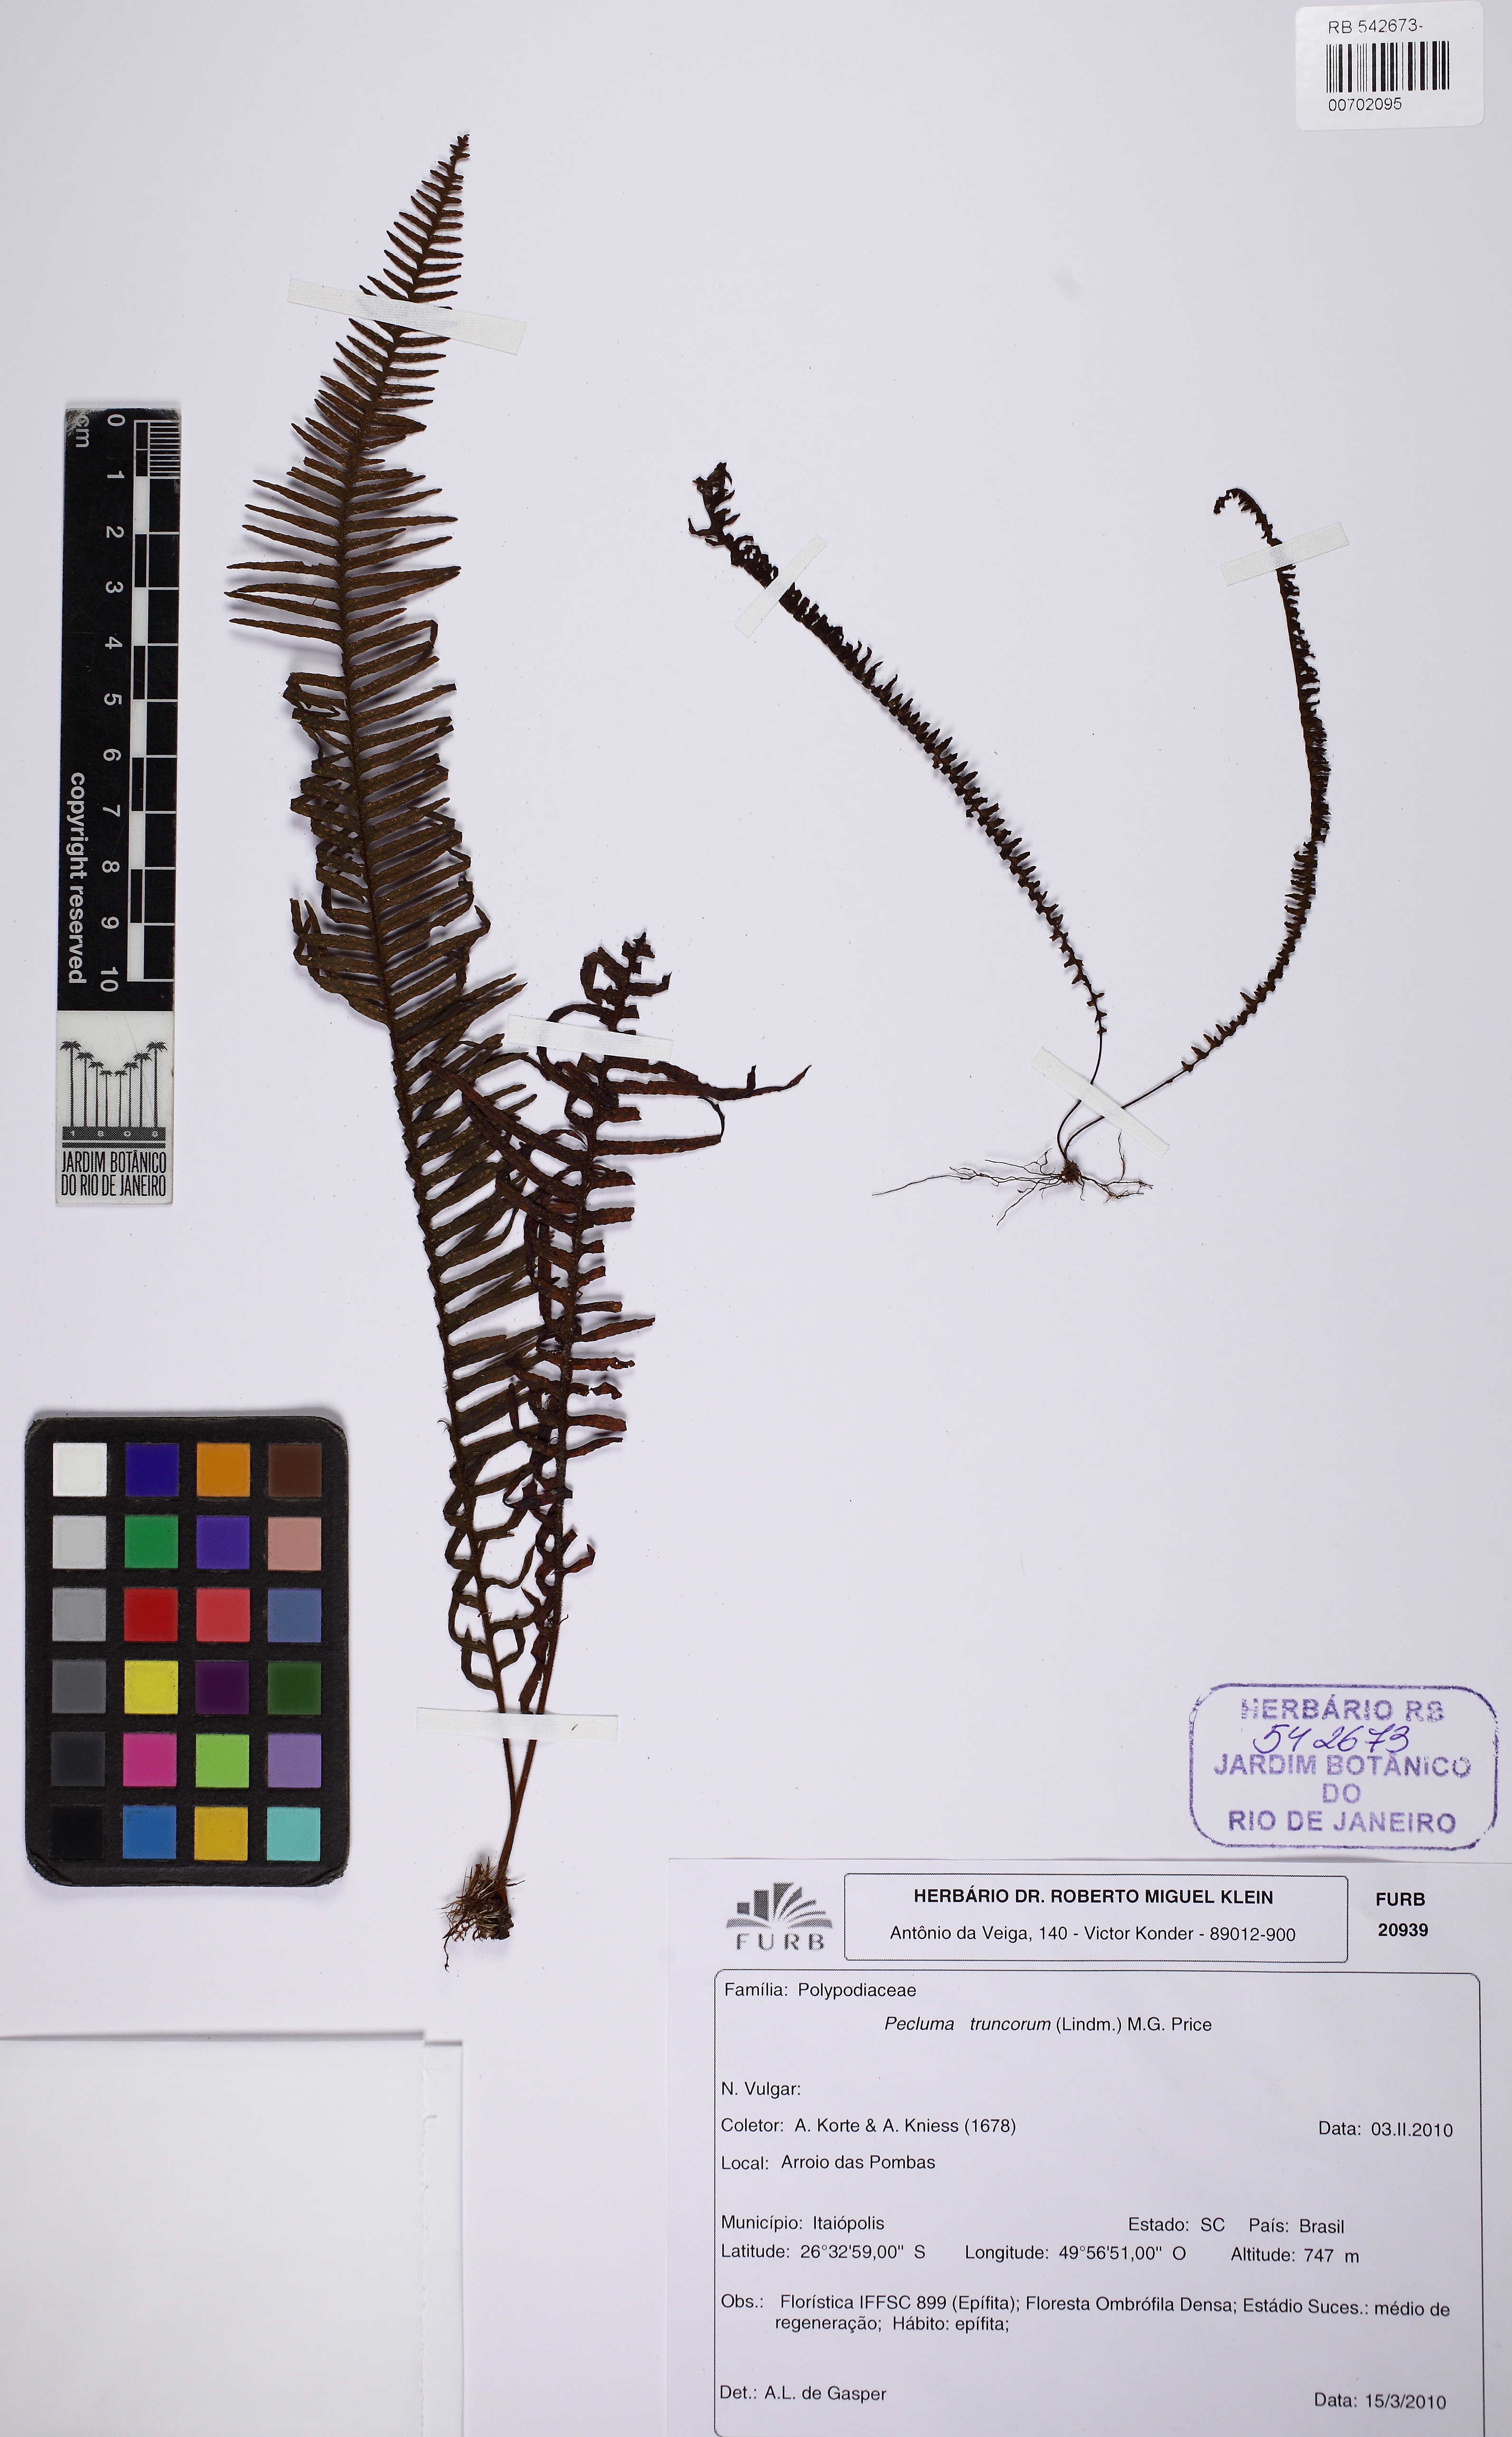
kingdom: Plantae
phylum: Tracheophyta
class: Polypodiopsida
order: Polypodiales
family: Polypodiaceae
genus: Pecluma
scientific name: Pecluma truncorum
